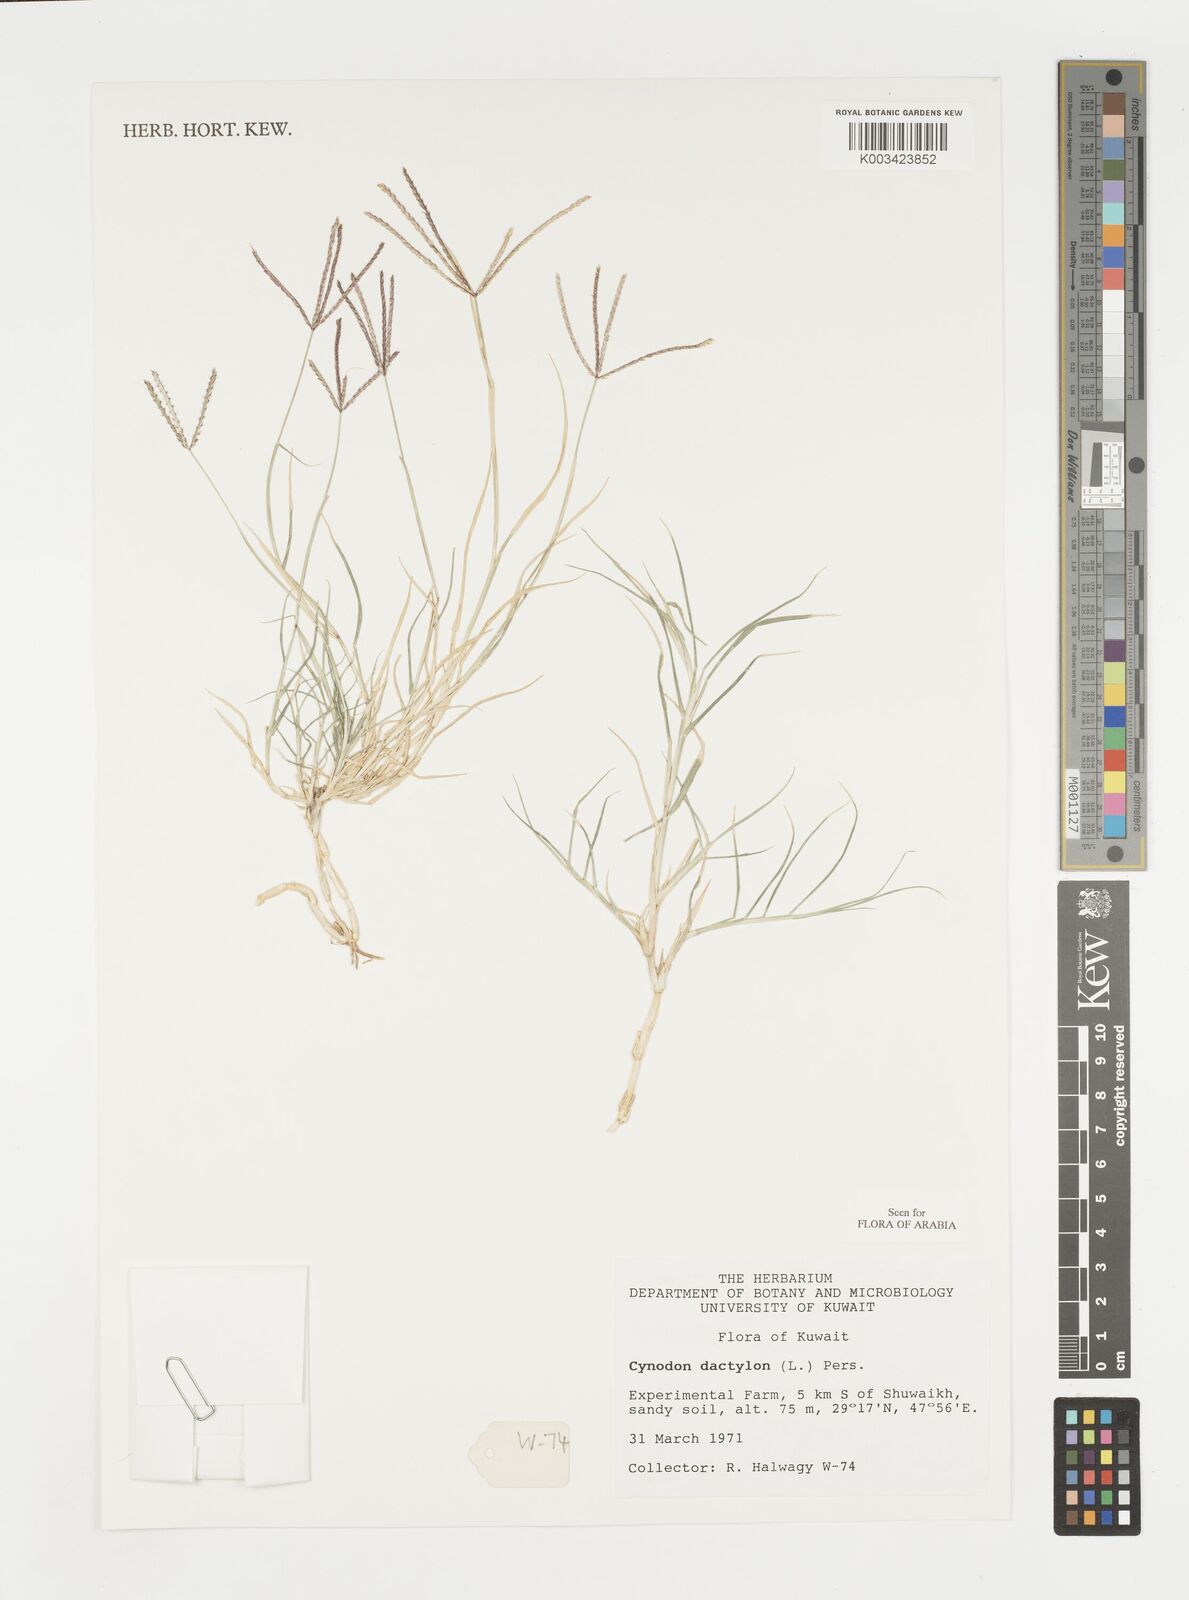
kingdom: Plantae
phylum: Tracheophyta
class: Liliopsida
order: Poales
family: Poaceae
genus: Cynodon
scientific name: Cynodon dactylon
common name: Bermuda grass
